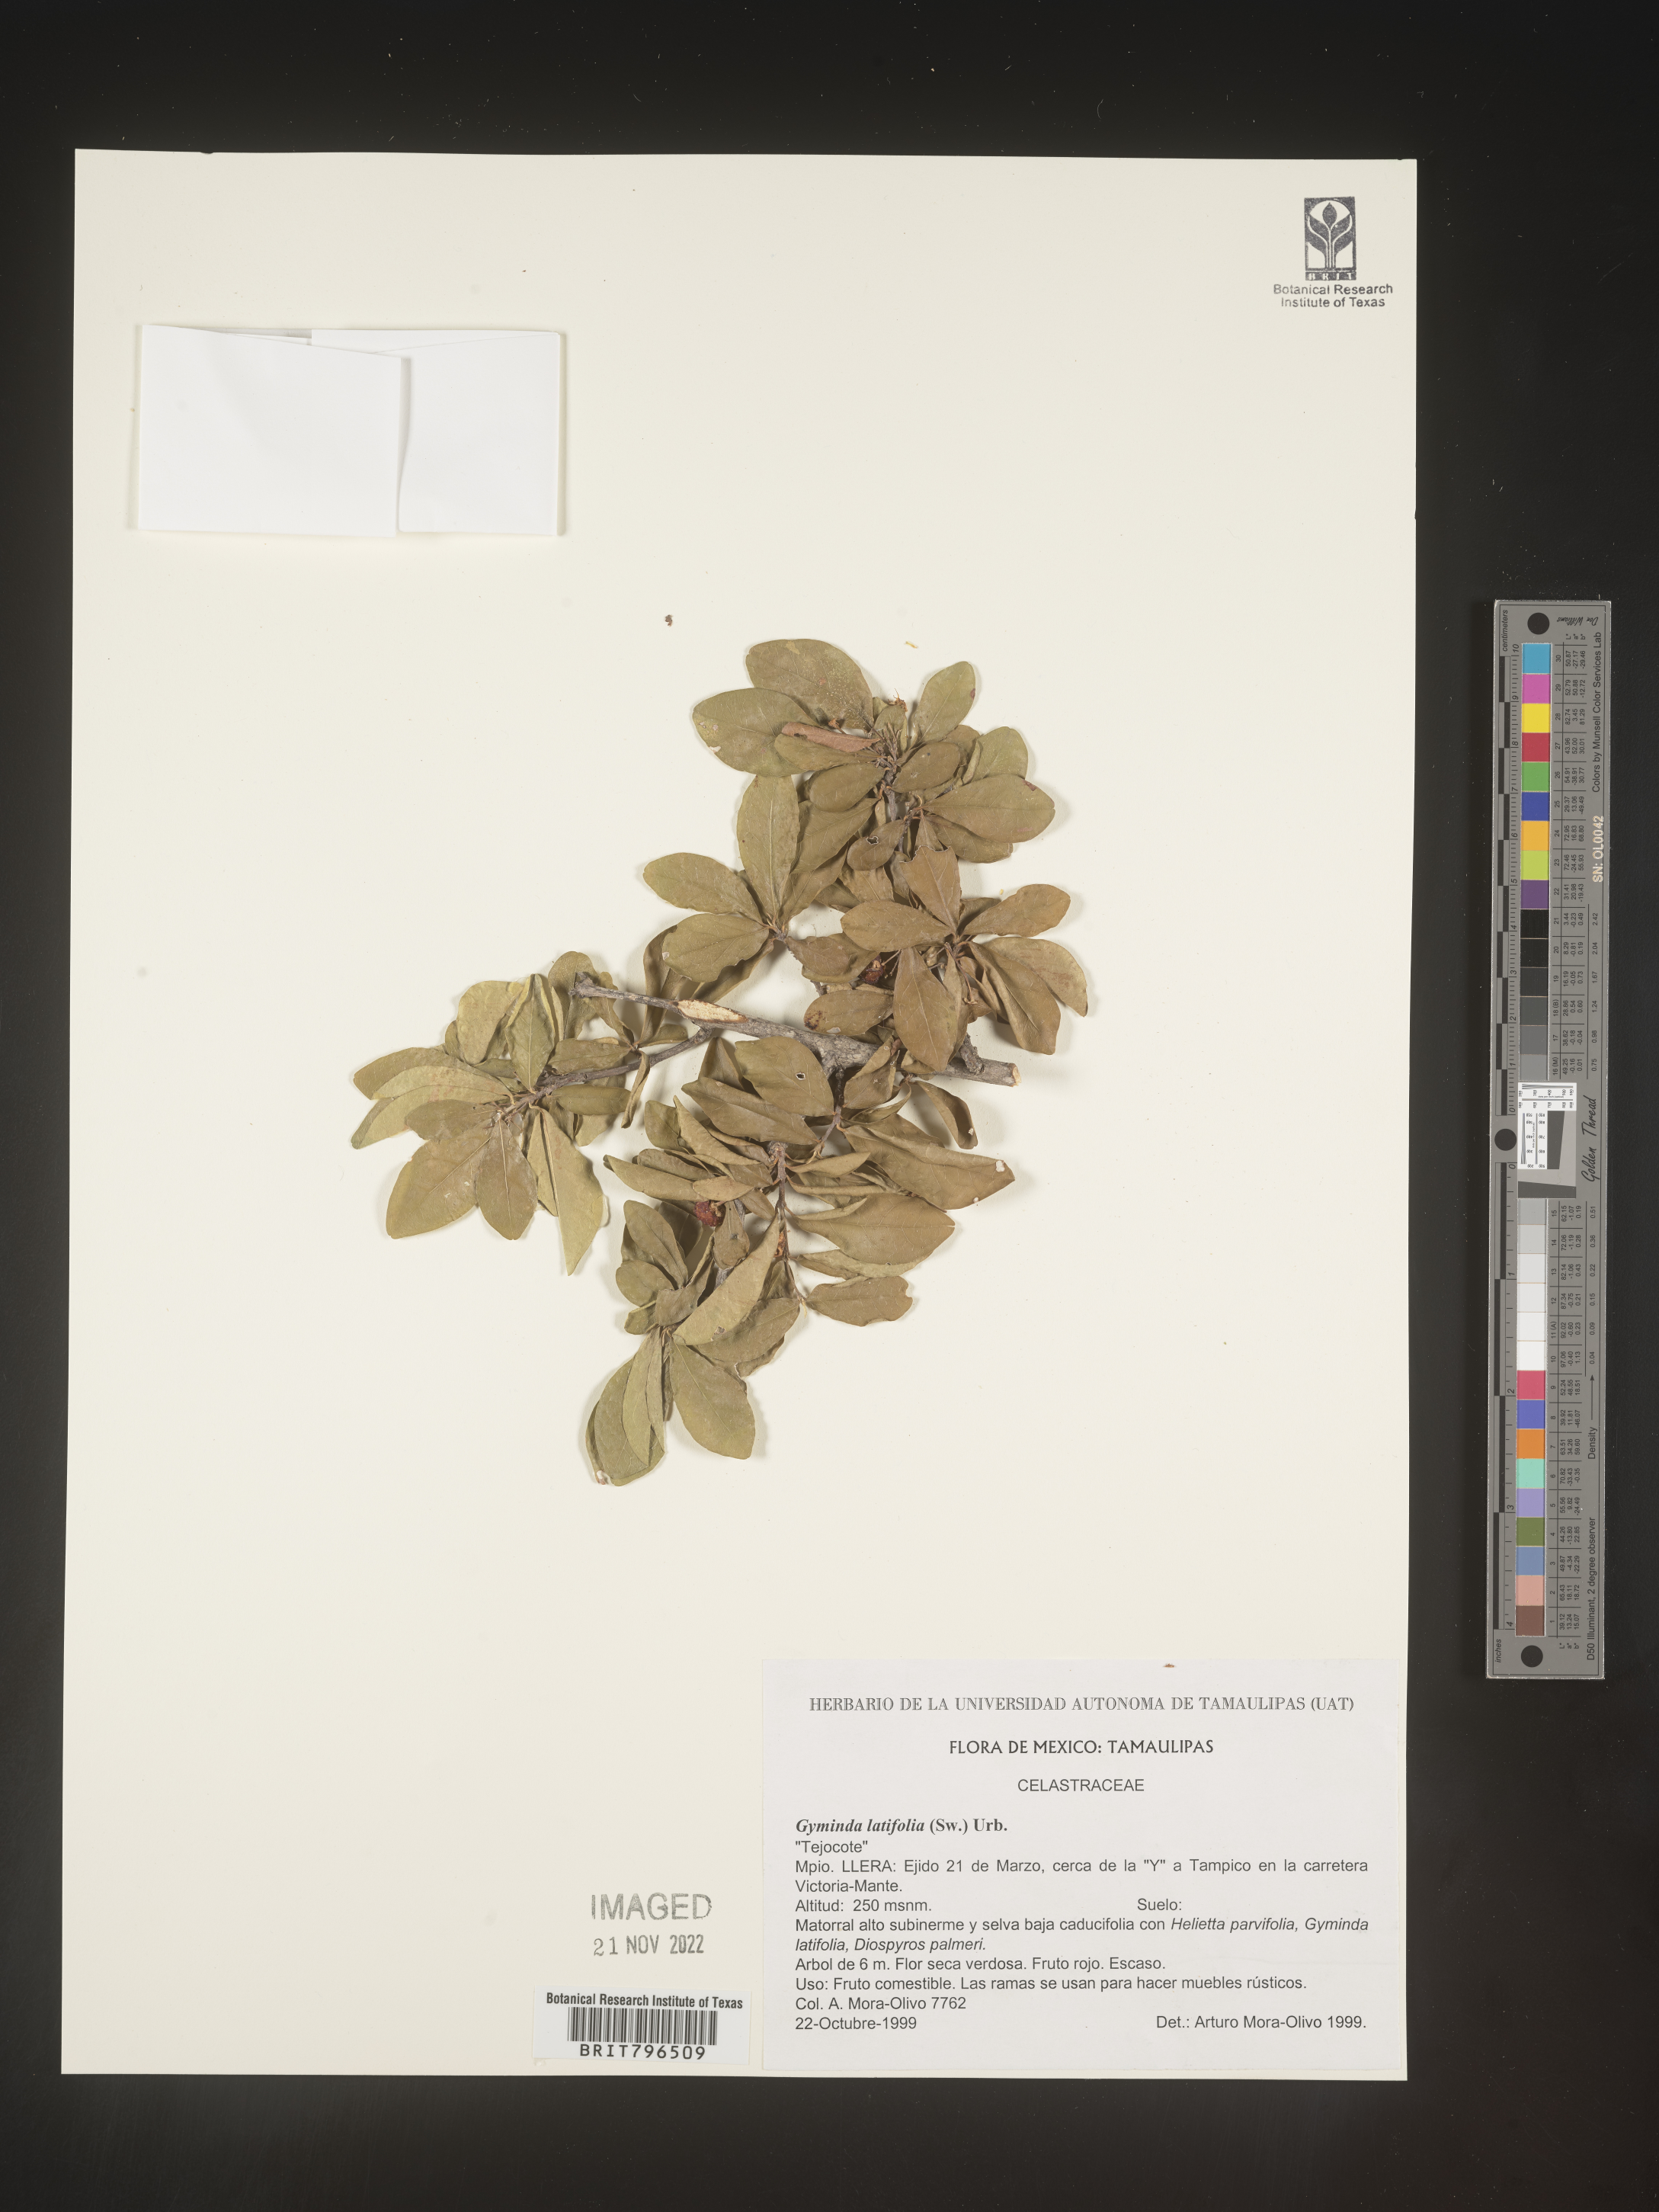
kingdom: Plantae
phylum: Tracheophyta
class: Magnoliopsida
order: Celastrales
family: Celastraceae
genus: Gyminda
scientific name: Gyminda
